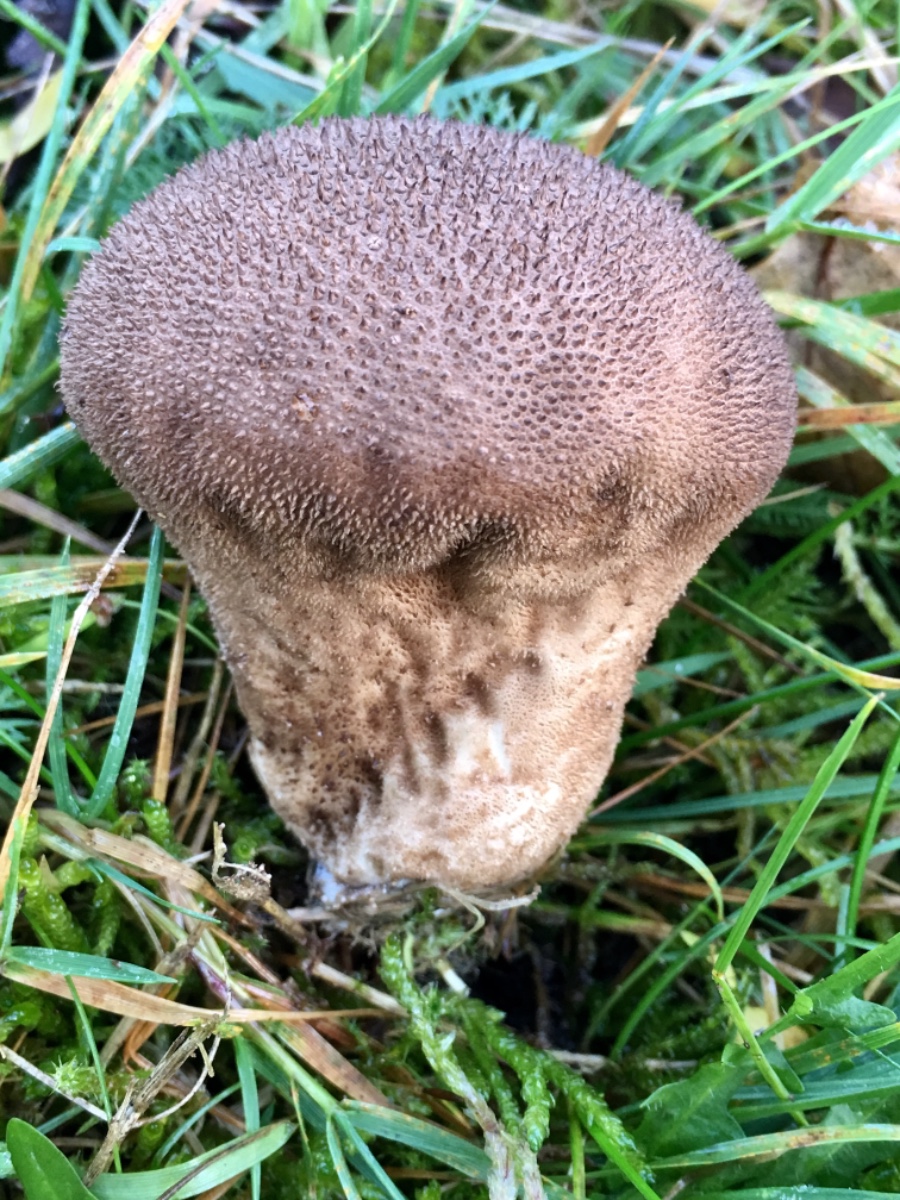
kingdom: Fungi
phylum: Basidiomycota
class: Agaricomycetes
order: Agaricales
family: Lycoperdaceae
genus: Lycoperdon
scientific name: Lycoperdon nigrescens
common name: sortagtig støvbold
